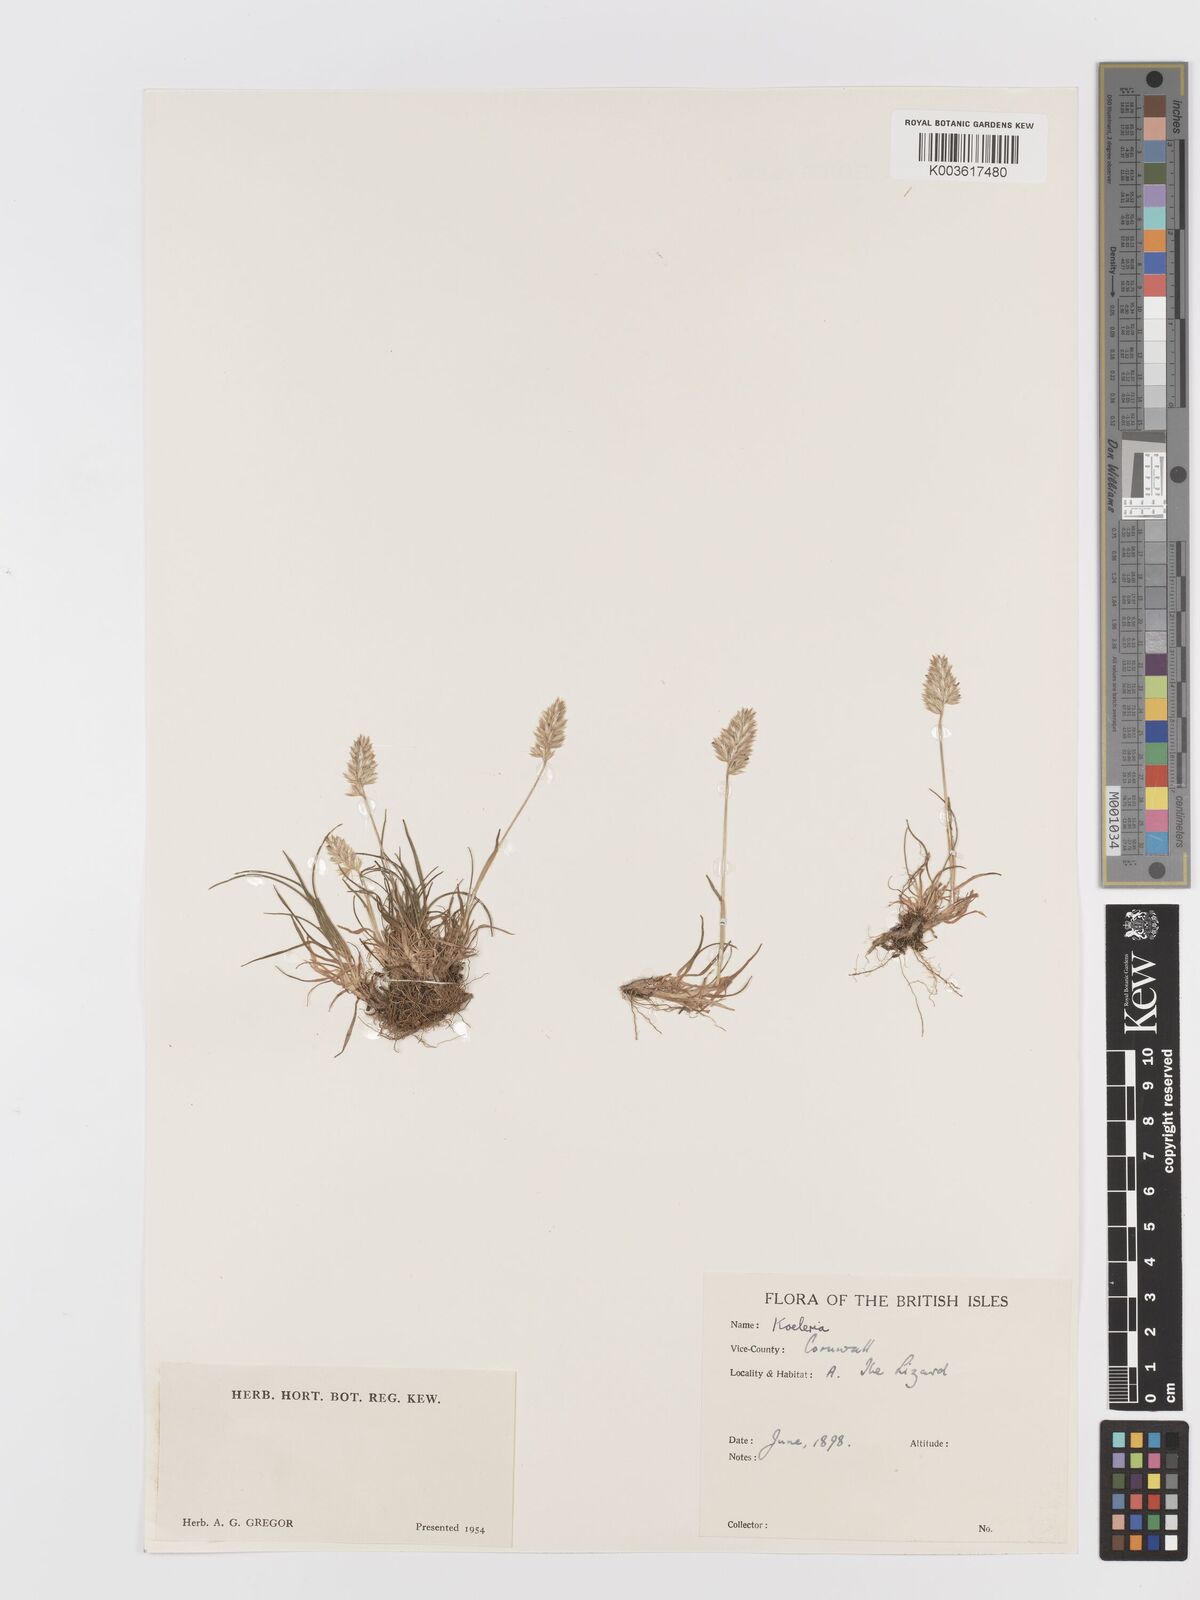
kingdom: Plantae
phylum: Tracheophyta
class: Liliopsida
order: Poales
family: Poaceae
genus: Koeleria
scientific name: Koeleria
